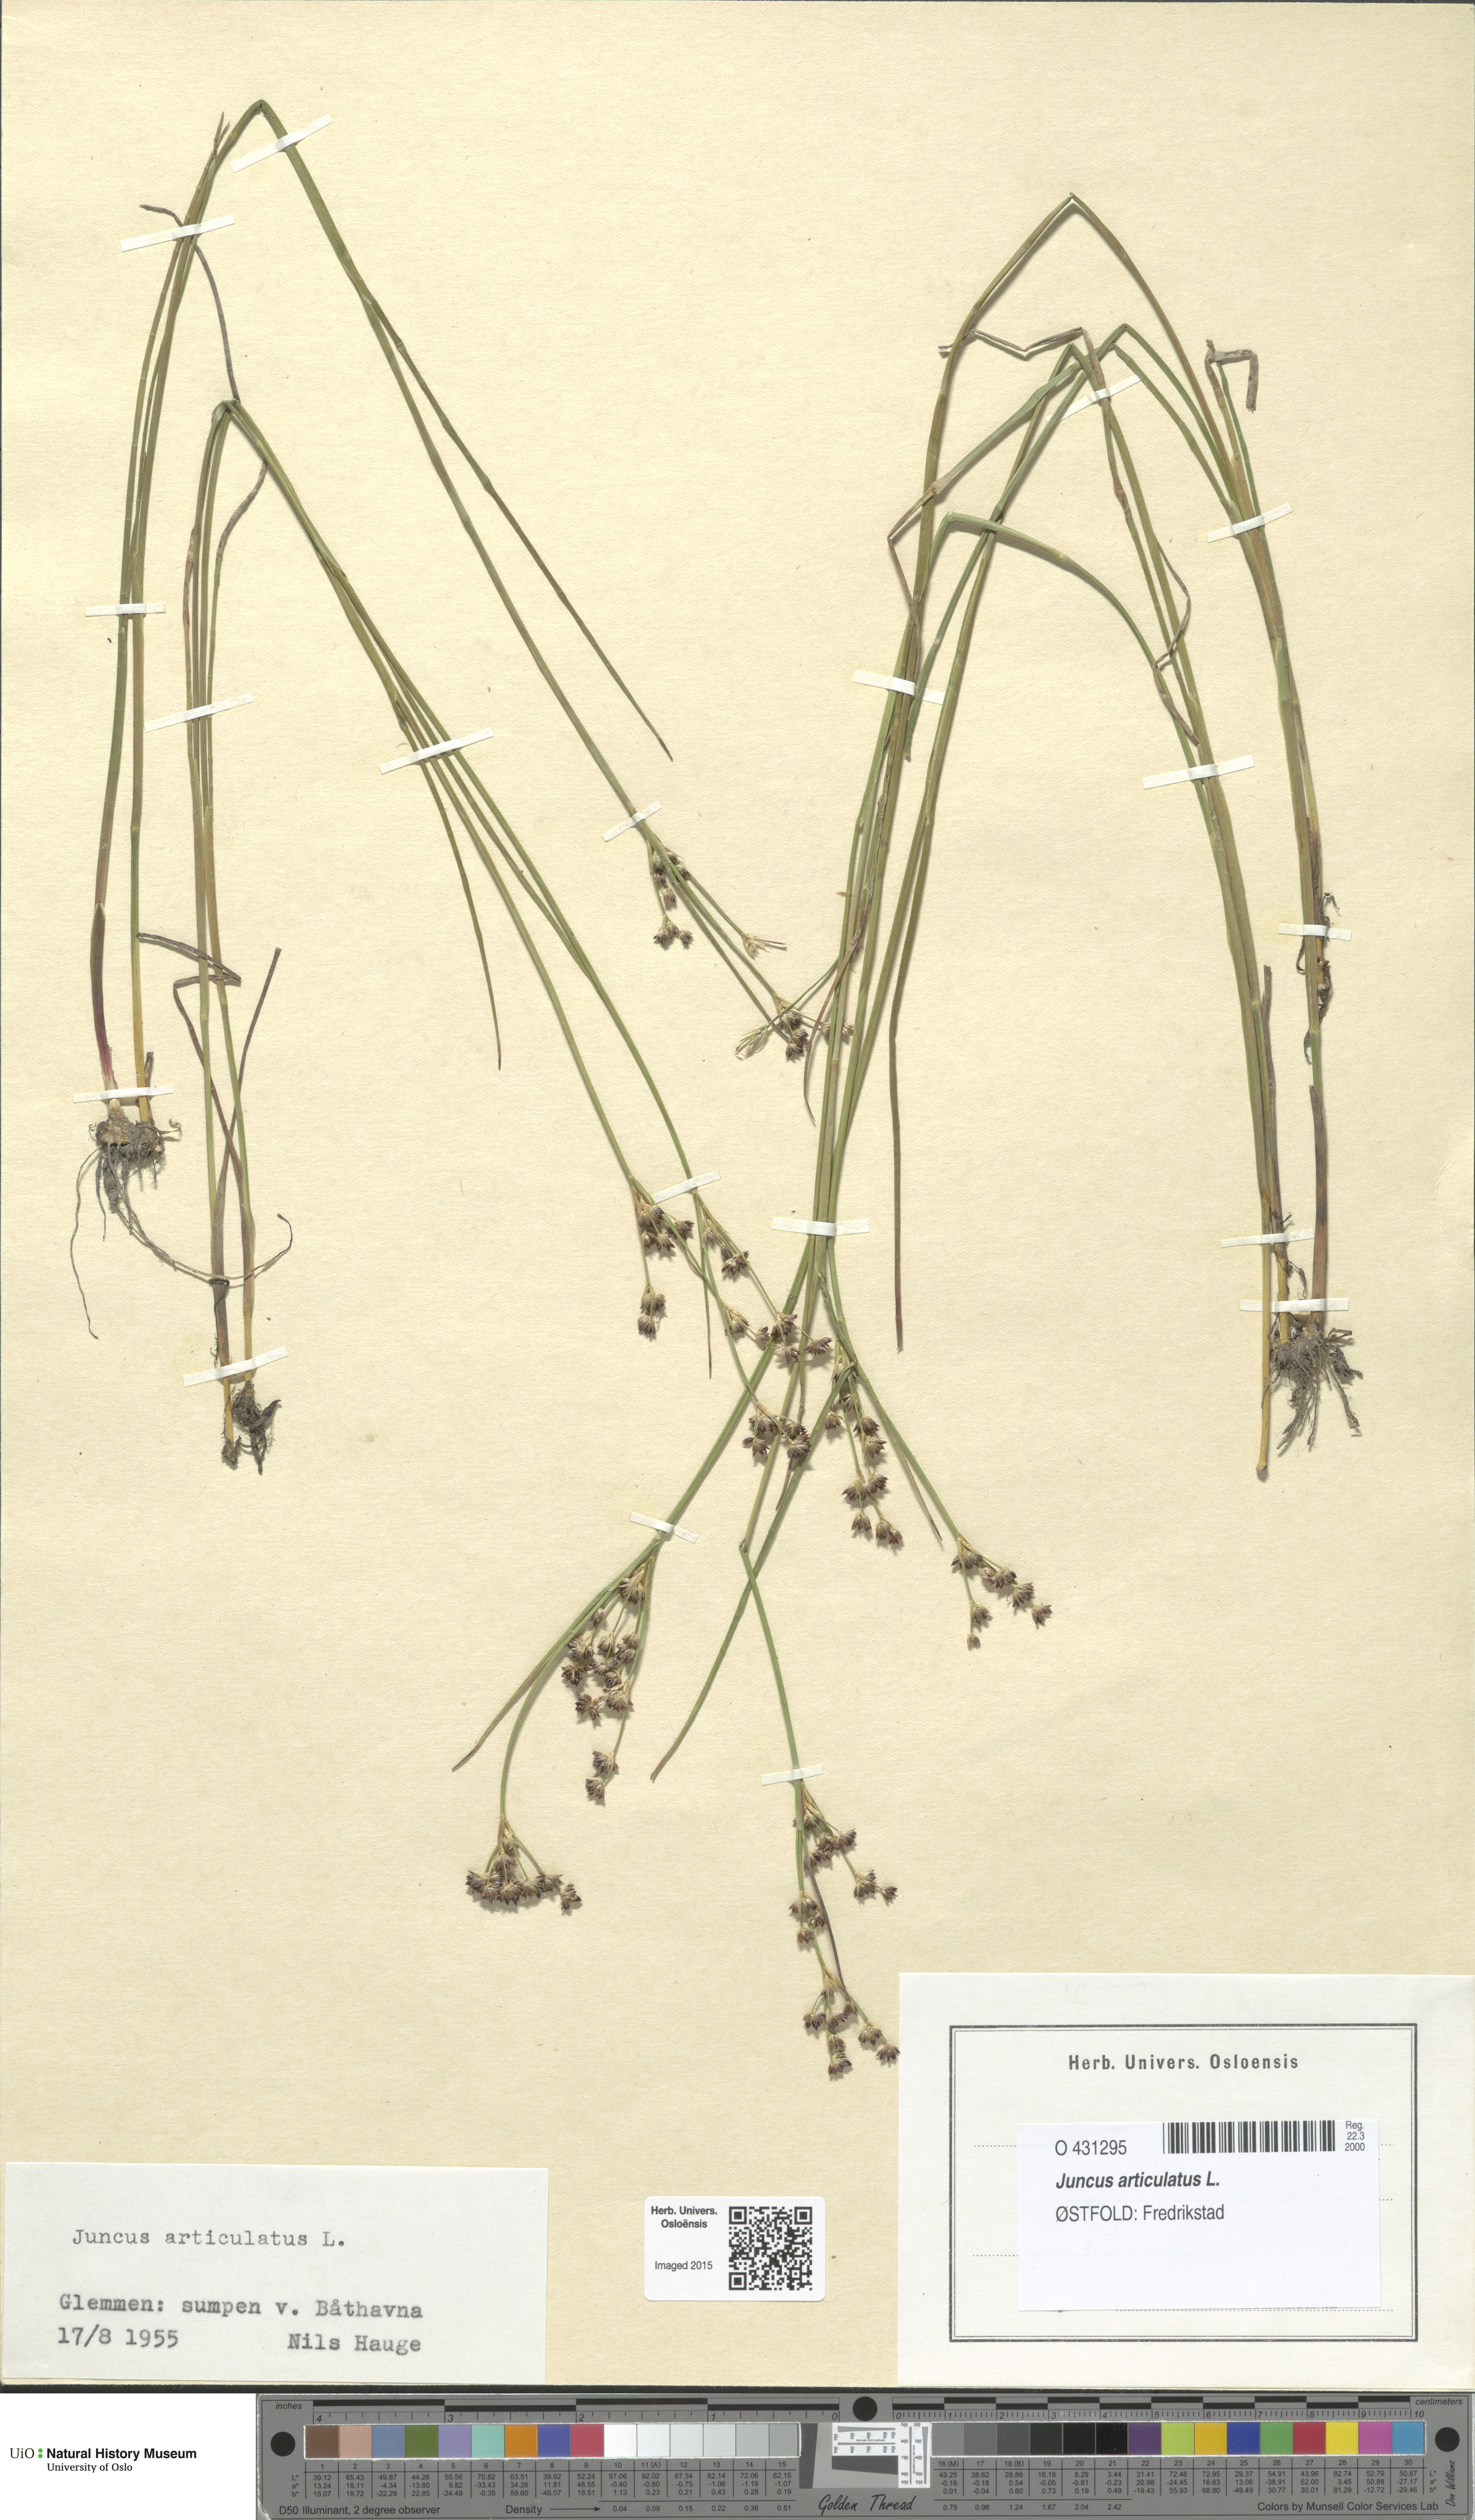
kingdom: Plantae
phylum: Tracheophyta
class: Liliopsida
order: Poales
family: Juncaceae
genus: Juncus
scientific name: Juncus articulatus
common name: Jointed rush
